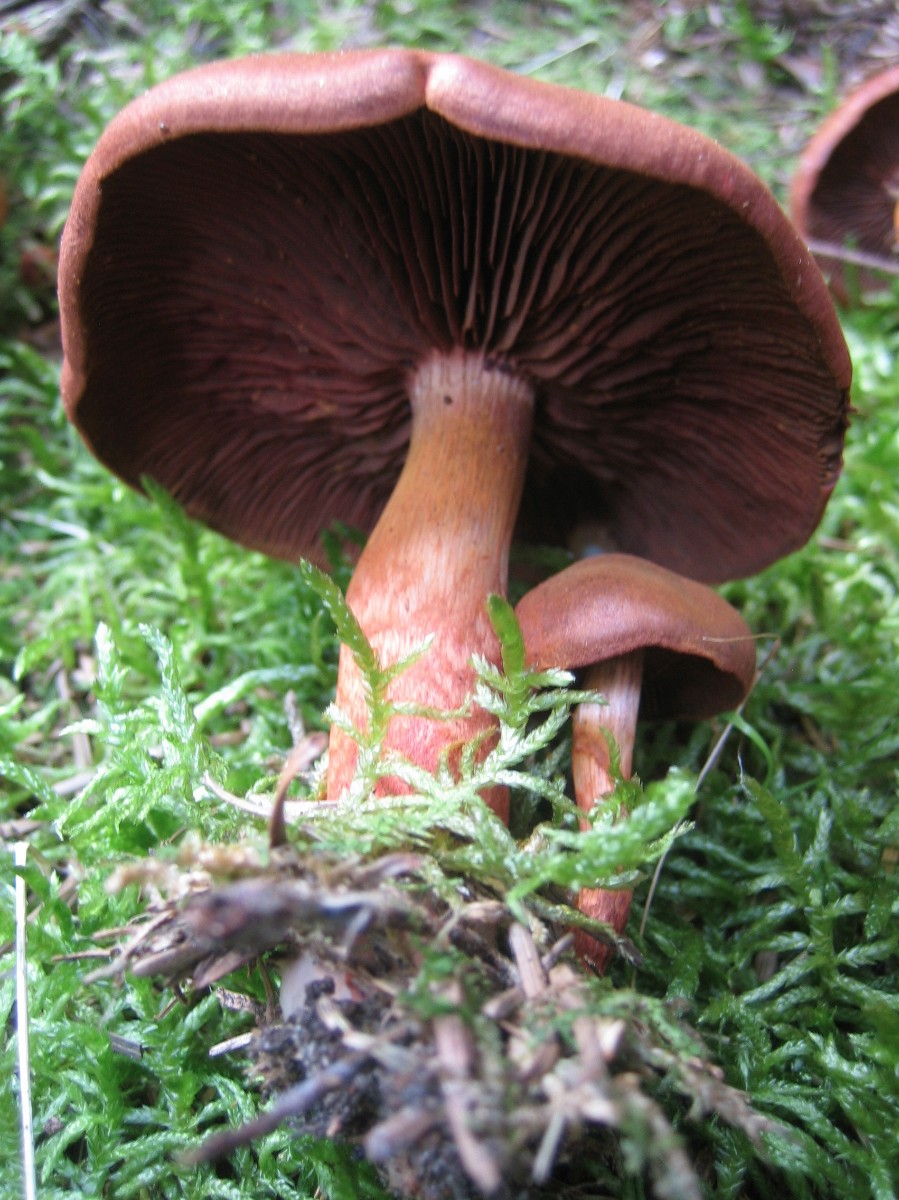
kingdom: Fungi
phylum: Basidiomycota
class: Agaricomycetes
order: Agaricales
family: Cortinariaceae
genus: Cortinarius
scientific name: Cortinarius purpureus
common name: brunrød slørhat
